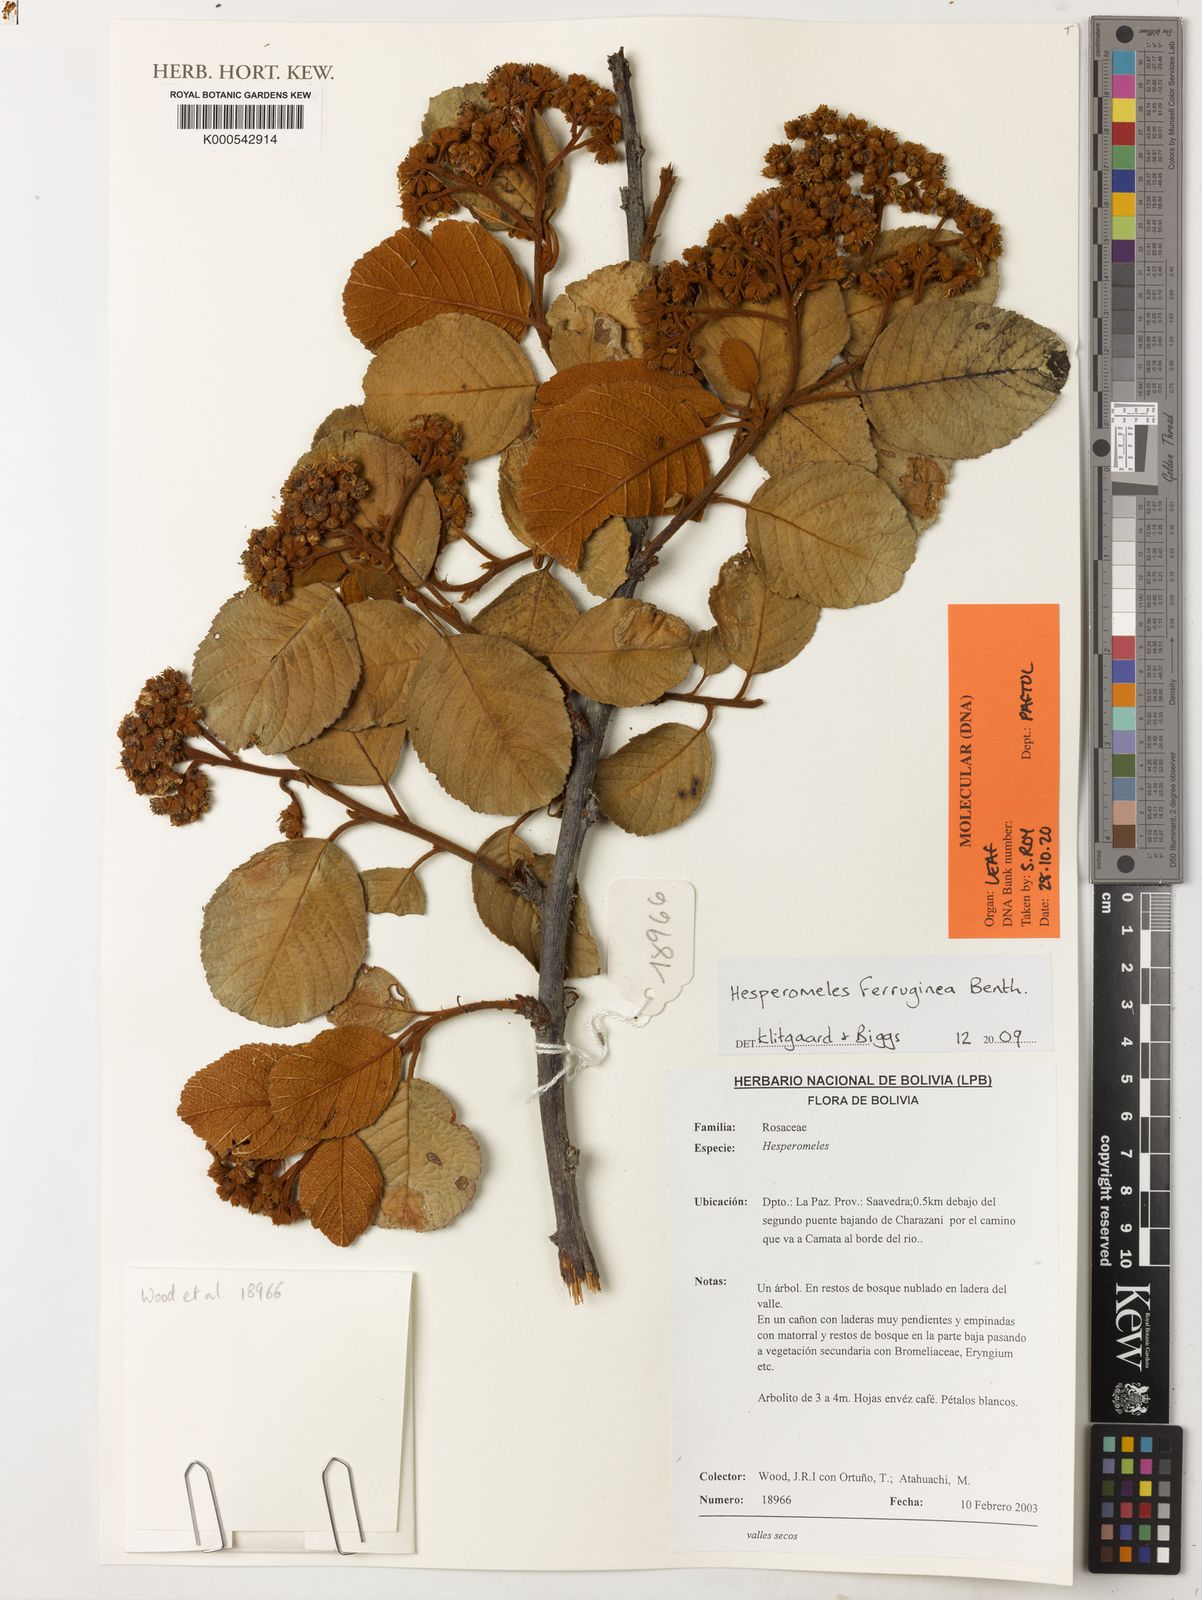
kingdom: Plantae
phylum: Tracheophyta
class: Magnoliopsida
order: Rosales
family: Rosaceae
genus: Hesperomeles
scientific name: Hesperomeles ferruginea
